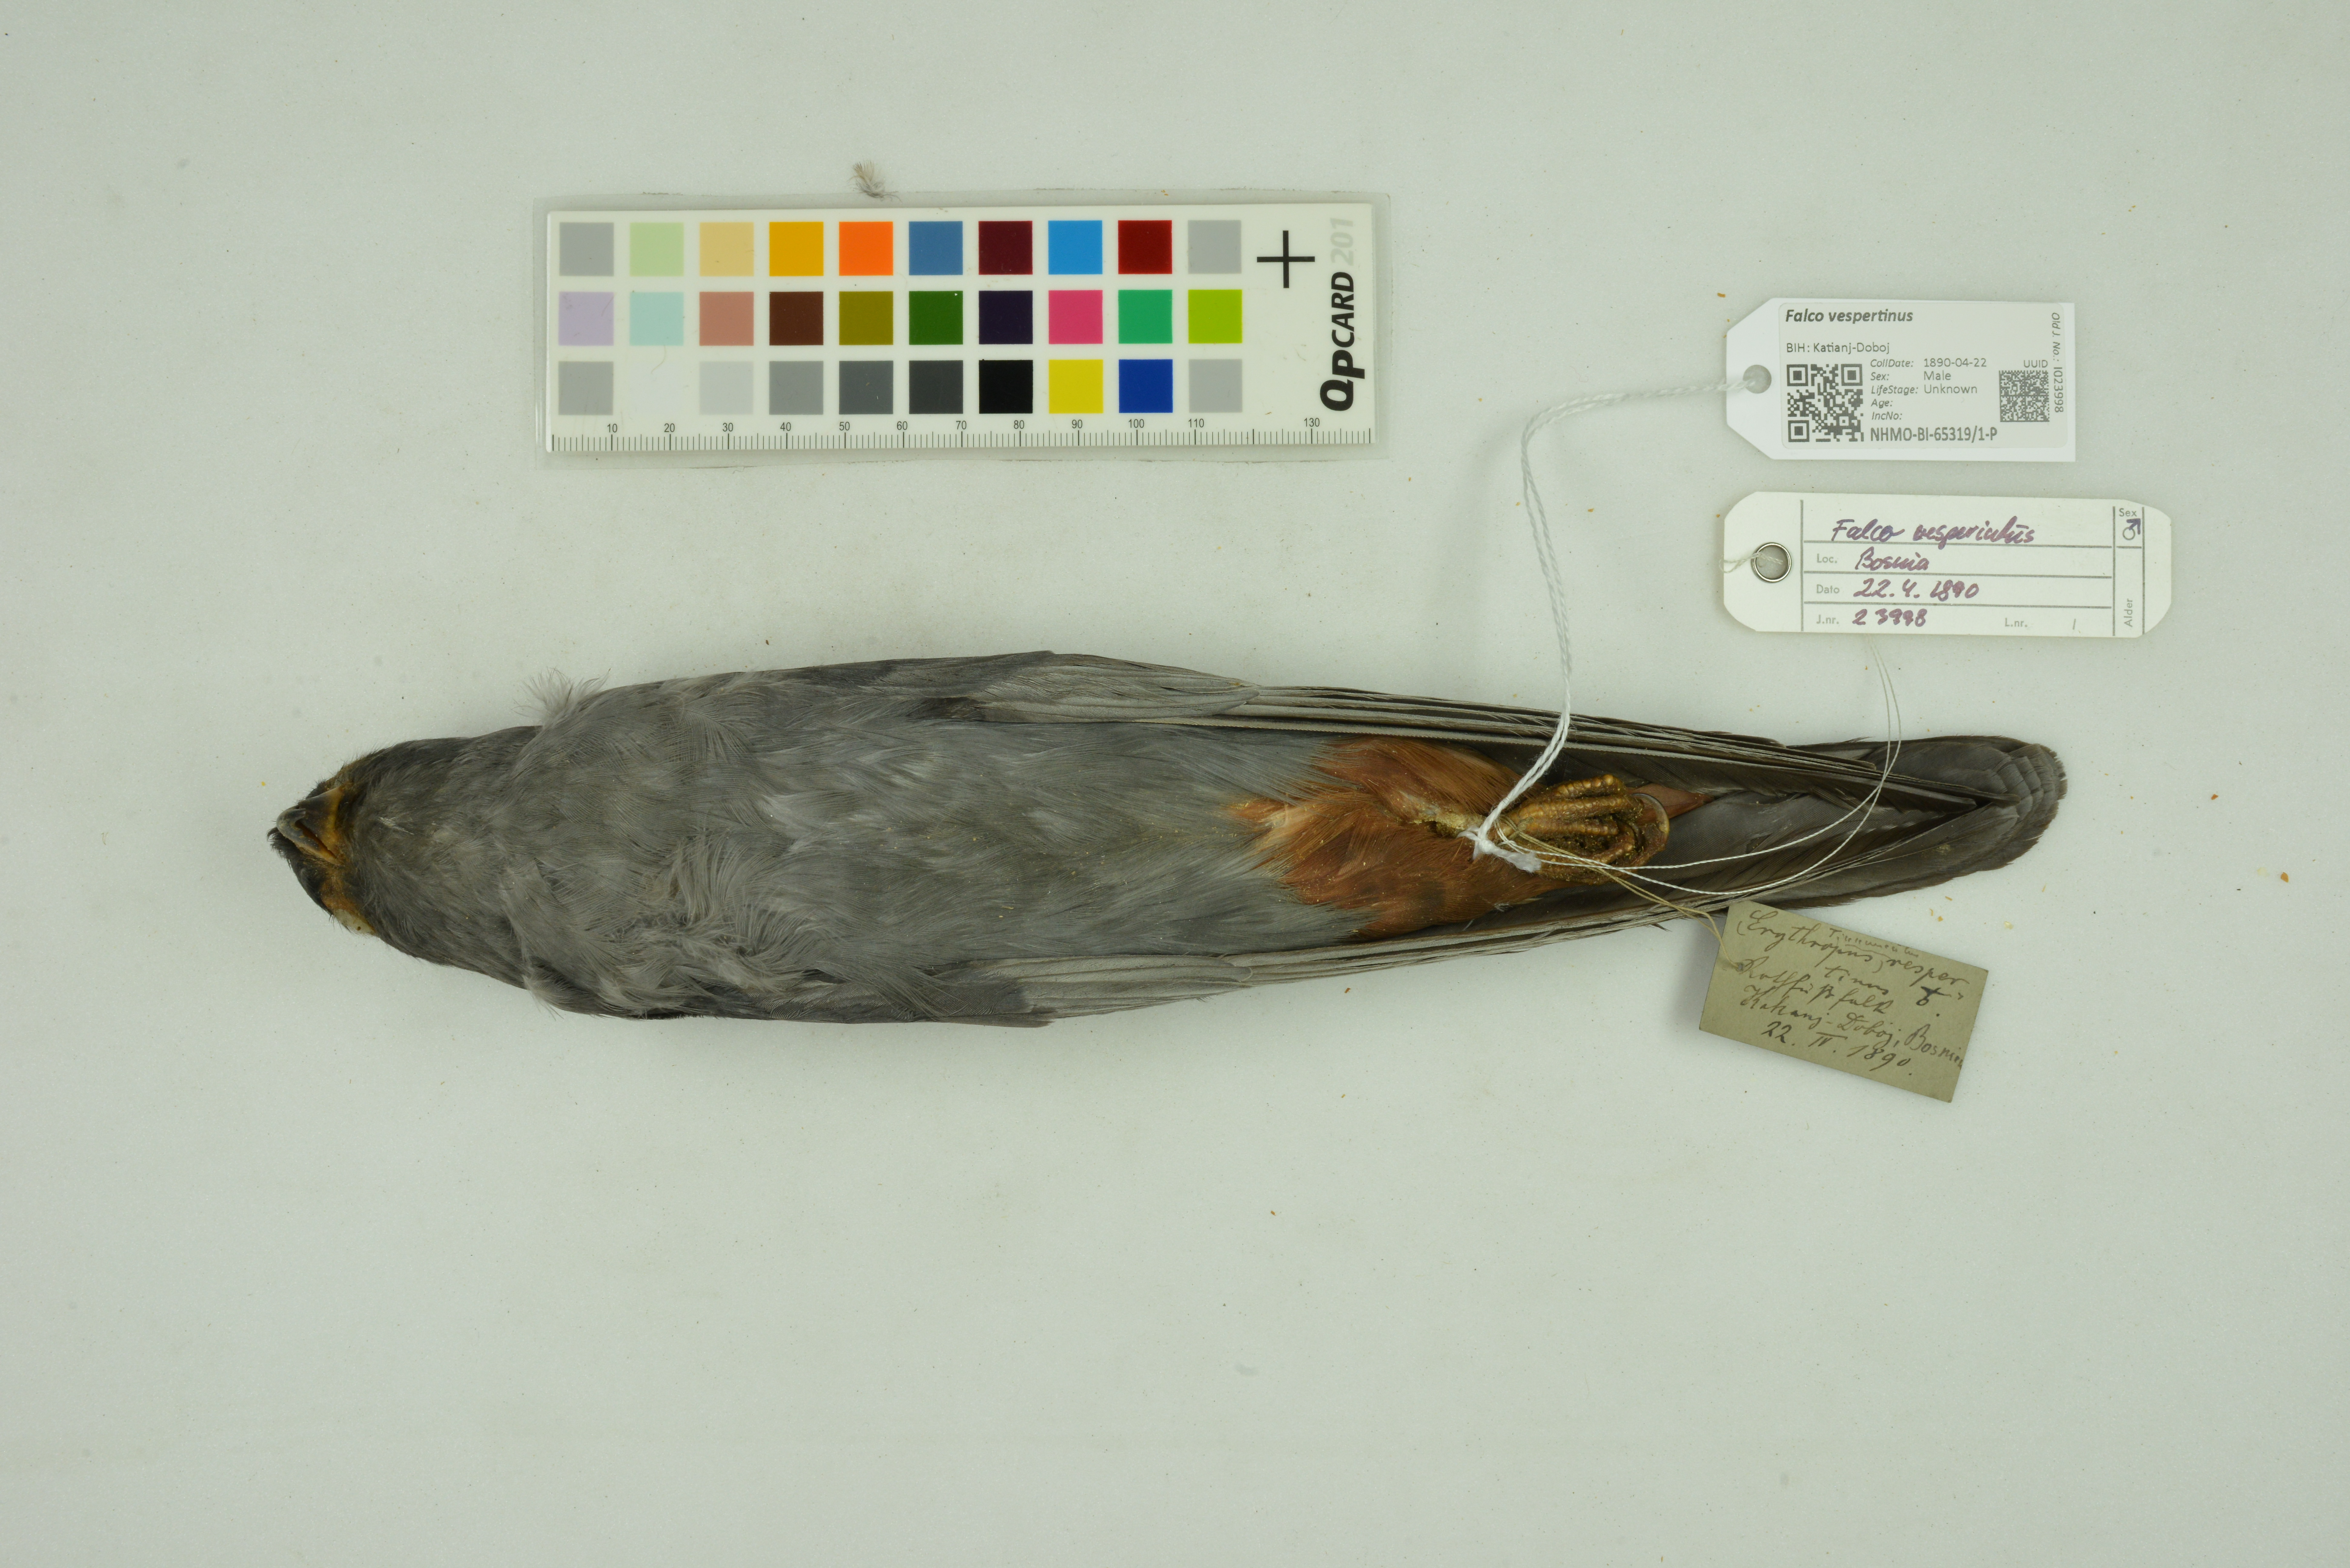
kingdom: Animalia
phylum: Chordata
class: Aves
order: Falconiformes
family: Falconidae
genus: Falco
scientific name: Falco vespertinus
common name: Red-footed falcon
